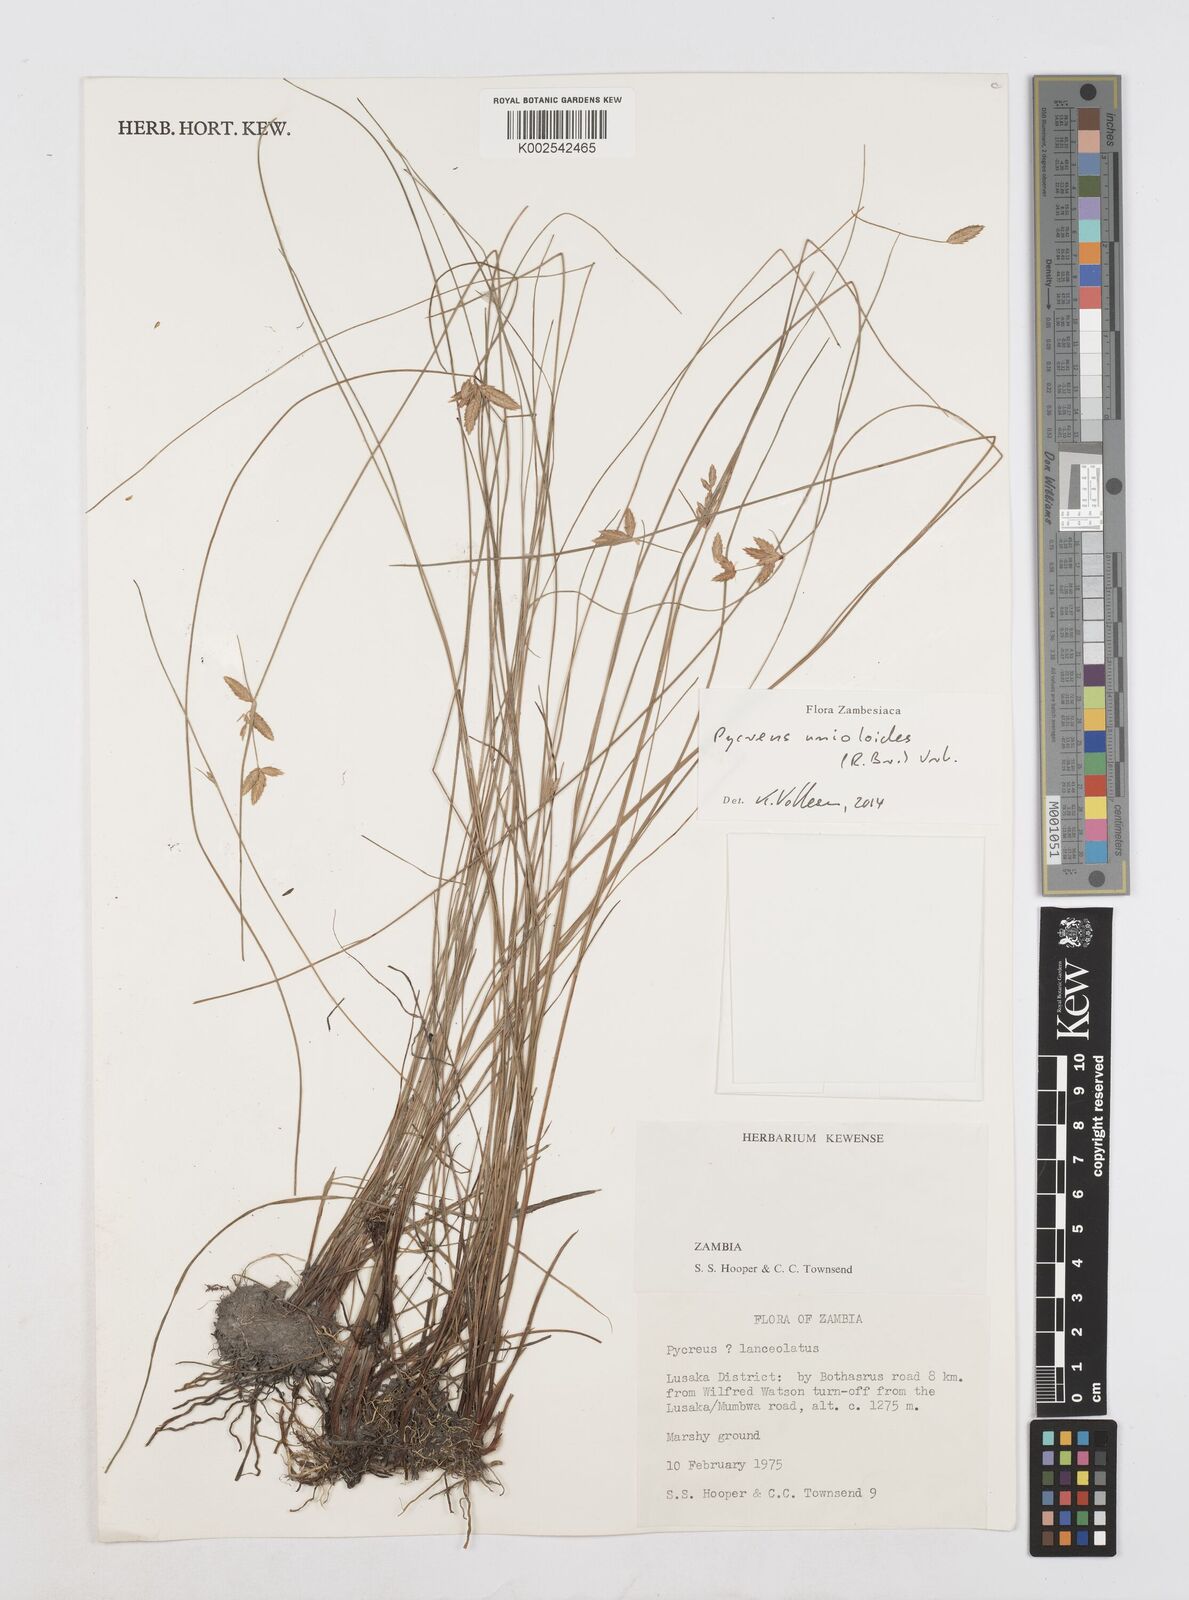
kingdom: Plantae
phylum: Tracheophyta
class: Liliopsida
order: Poales
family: Cyperaceae
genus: Cyperus
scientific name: Cyperus unioloides
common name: Uniola flatsedge
